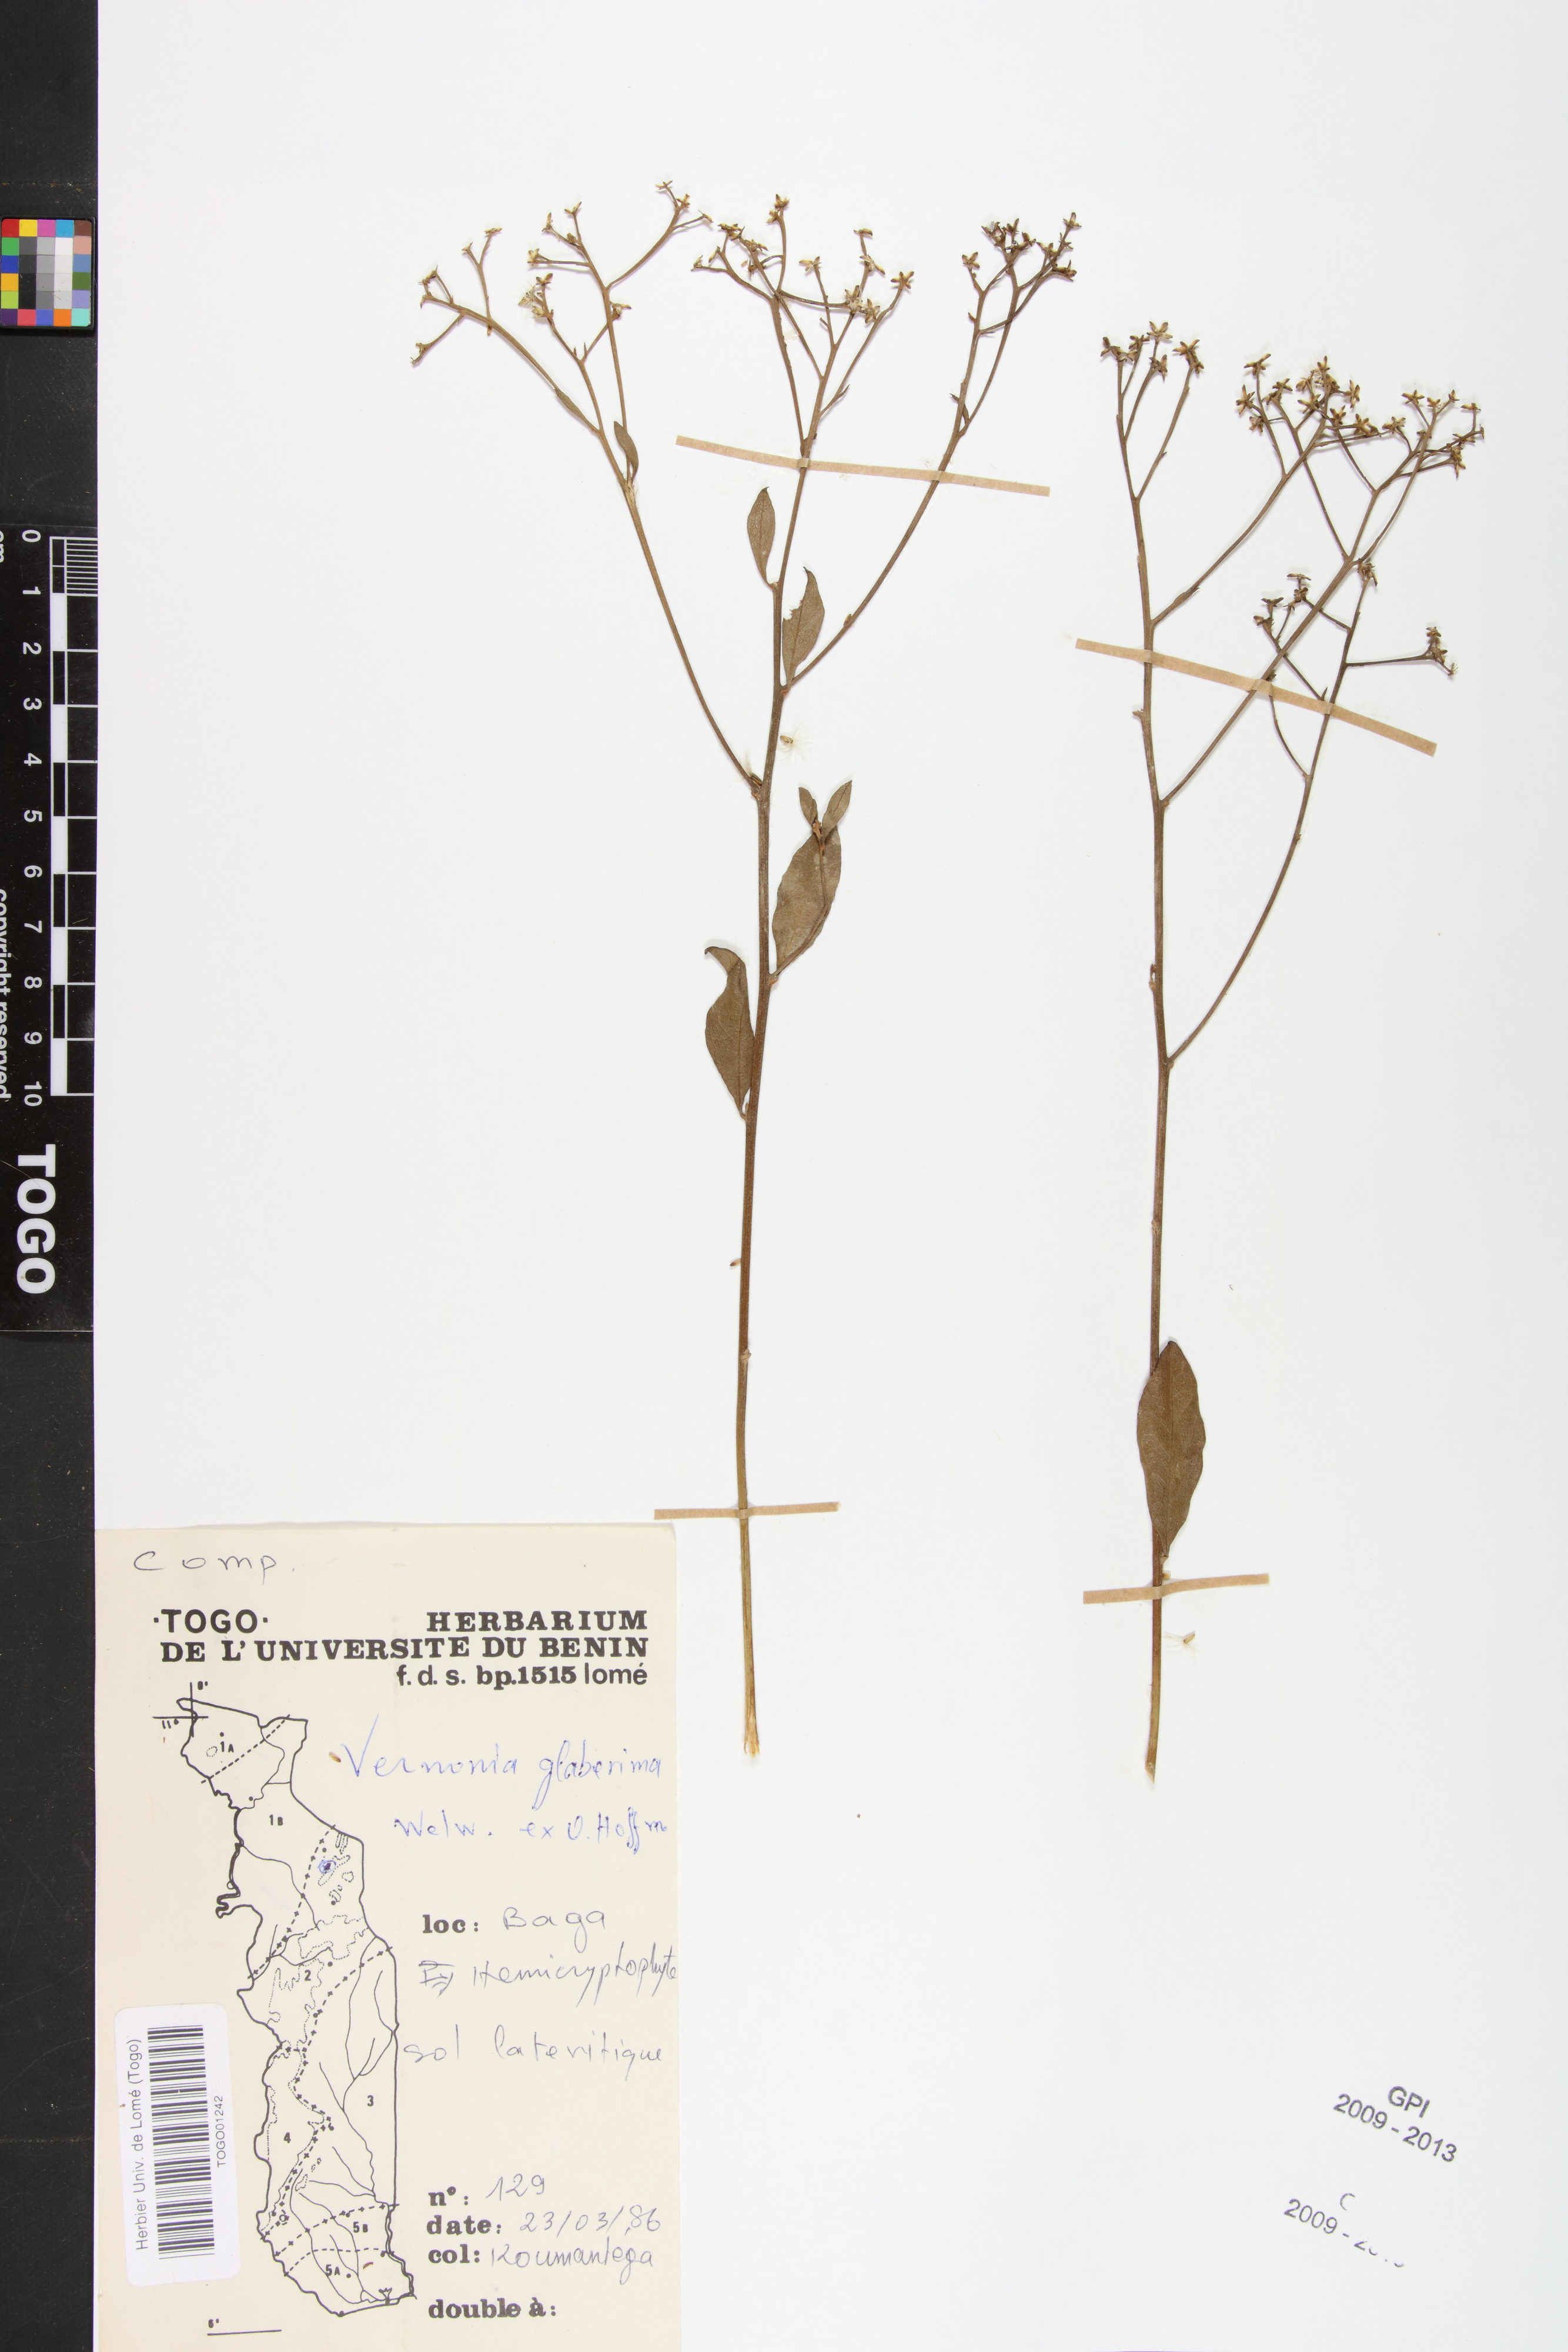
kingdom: Plantae
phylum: Tracheophyta
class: Magnoliopsida
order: Asterales
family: Asteraceae
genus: Gymnanthemum
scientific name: Gymnanthemum glaberrimum
